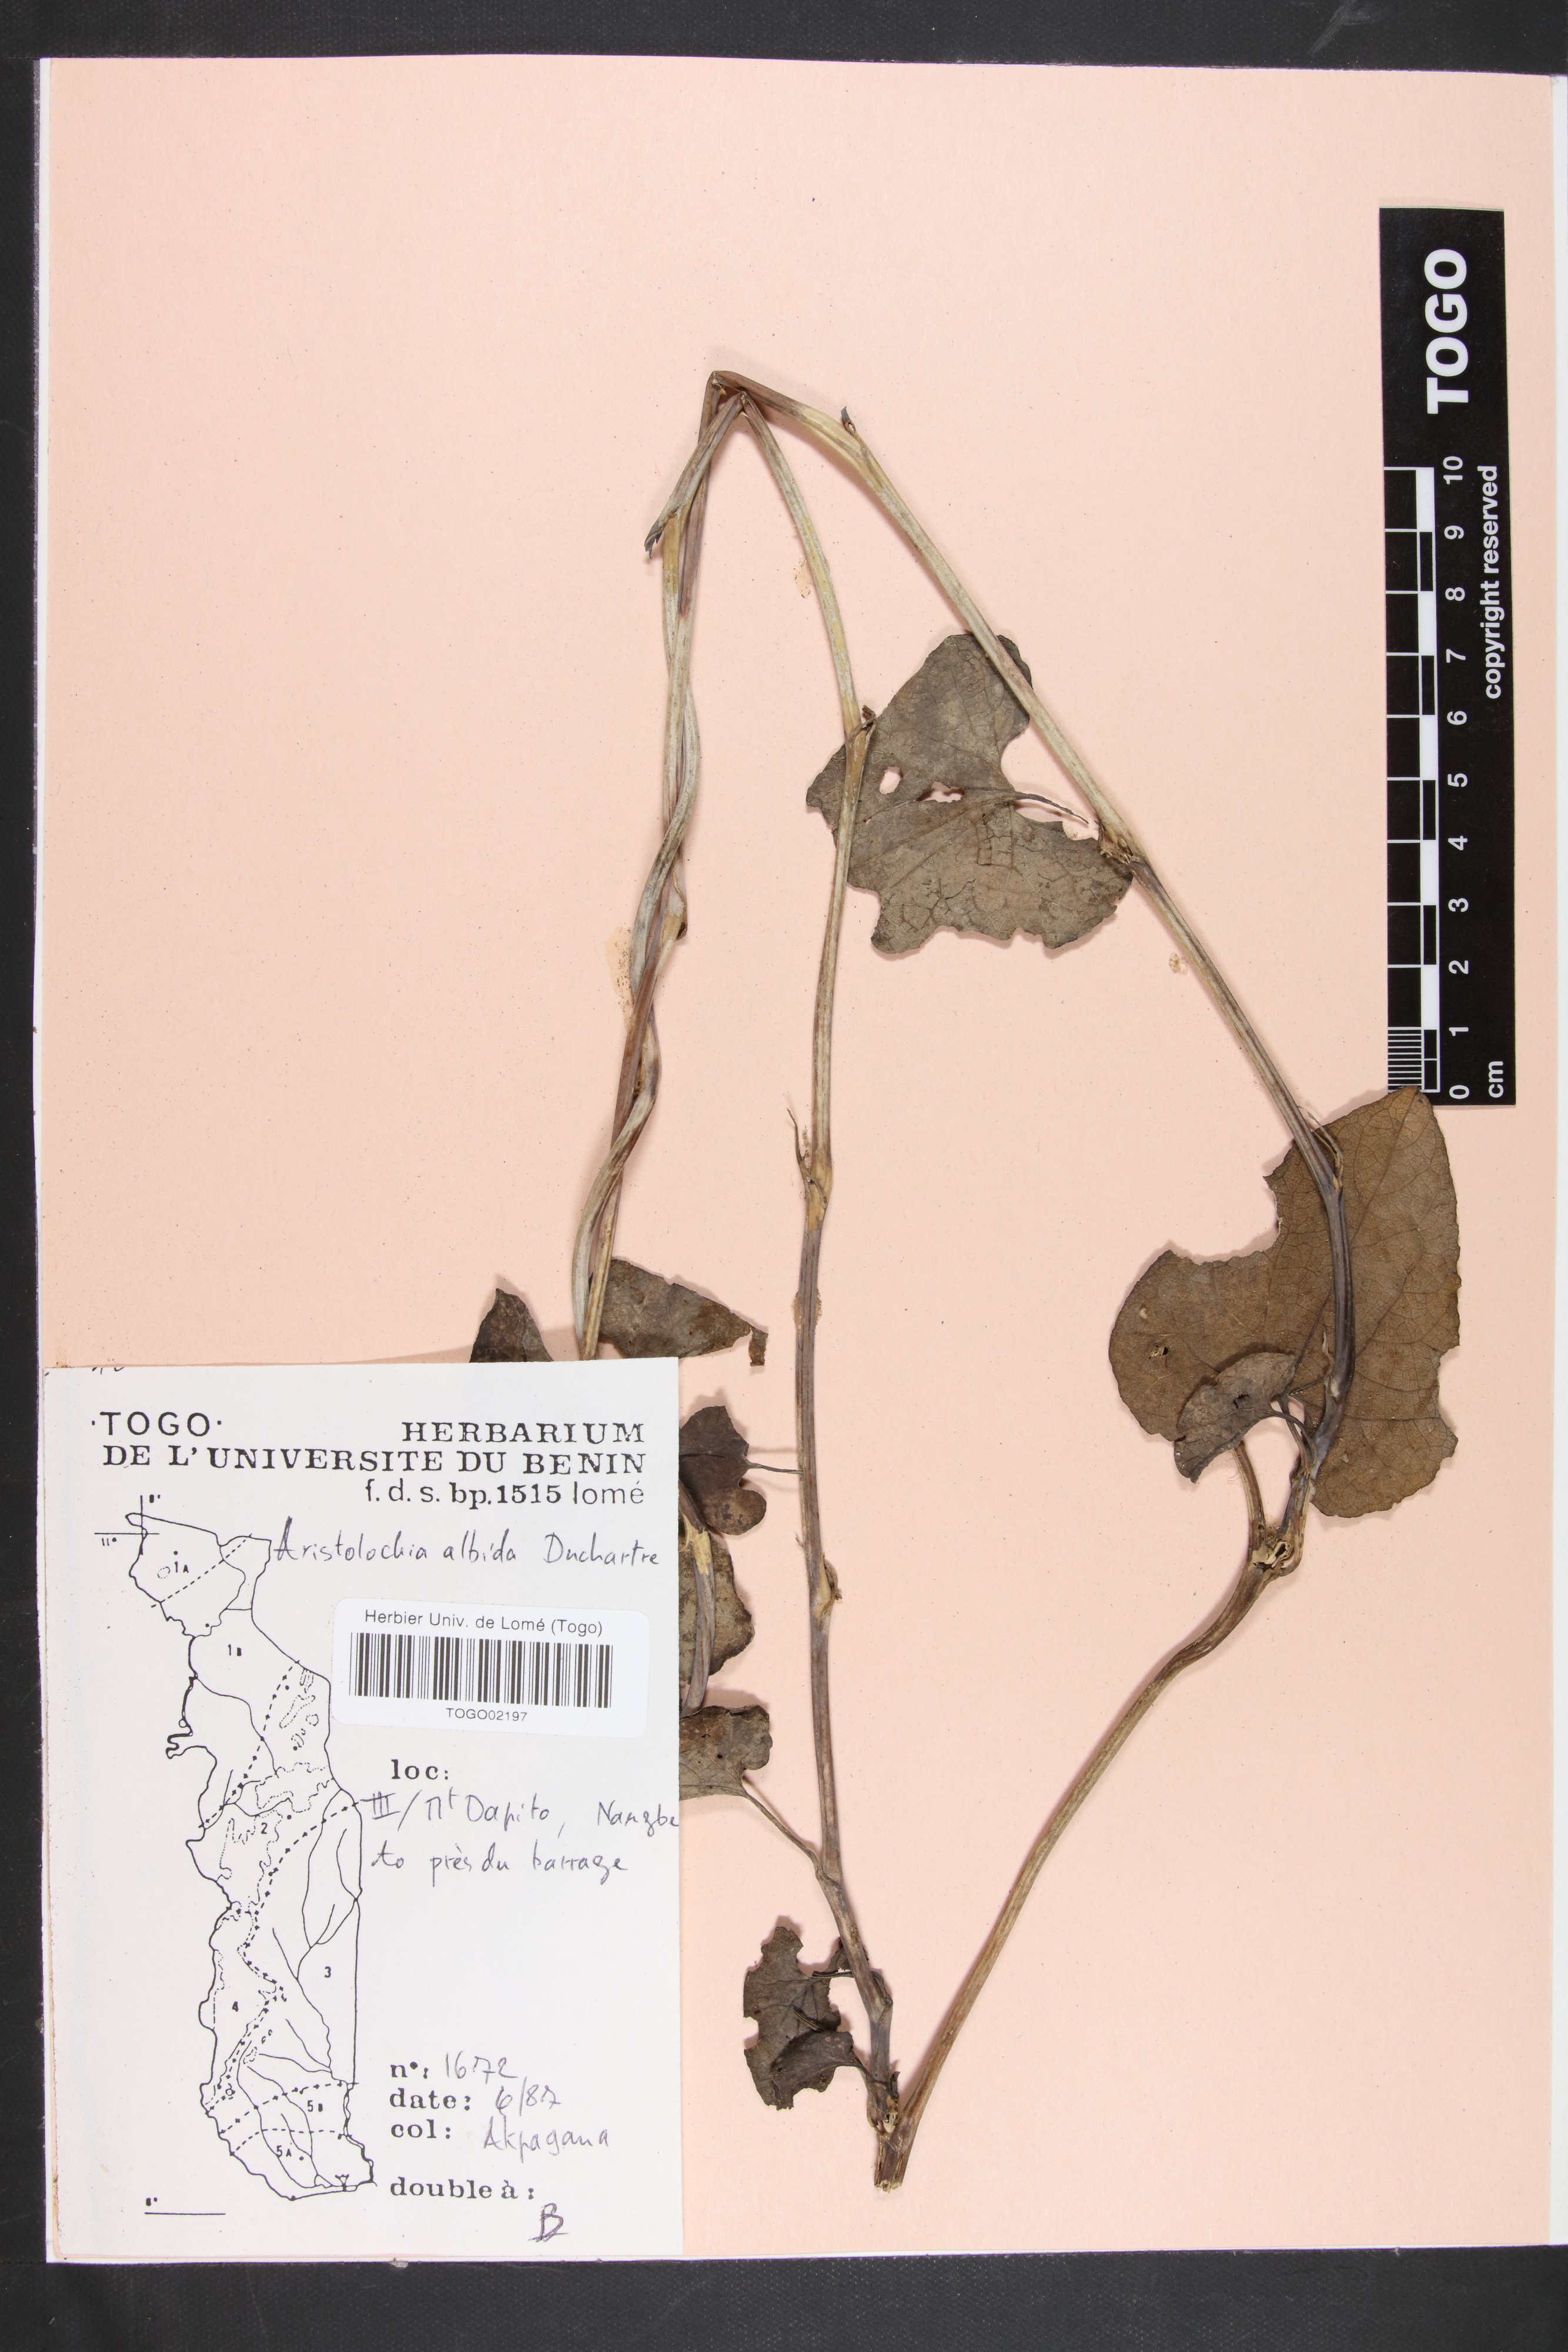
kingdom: Plantae
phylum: Tracheophyta
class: Magnoliopsida
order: Piperales
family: Aristolochiaceae
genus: Aristolochia
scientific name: Aristolochia albida
